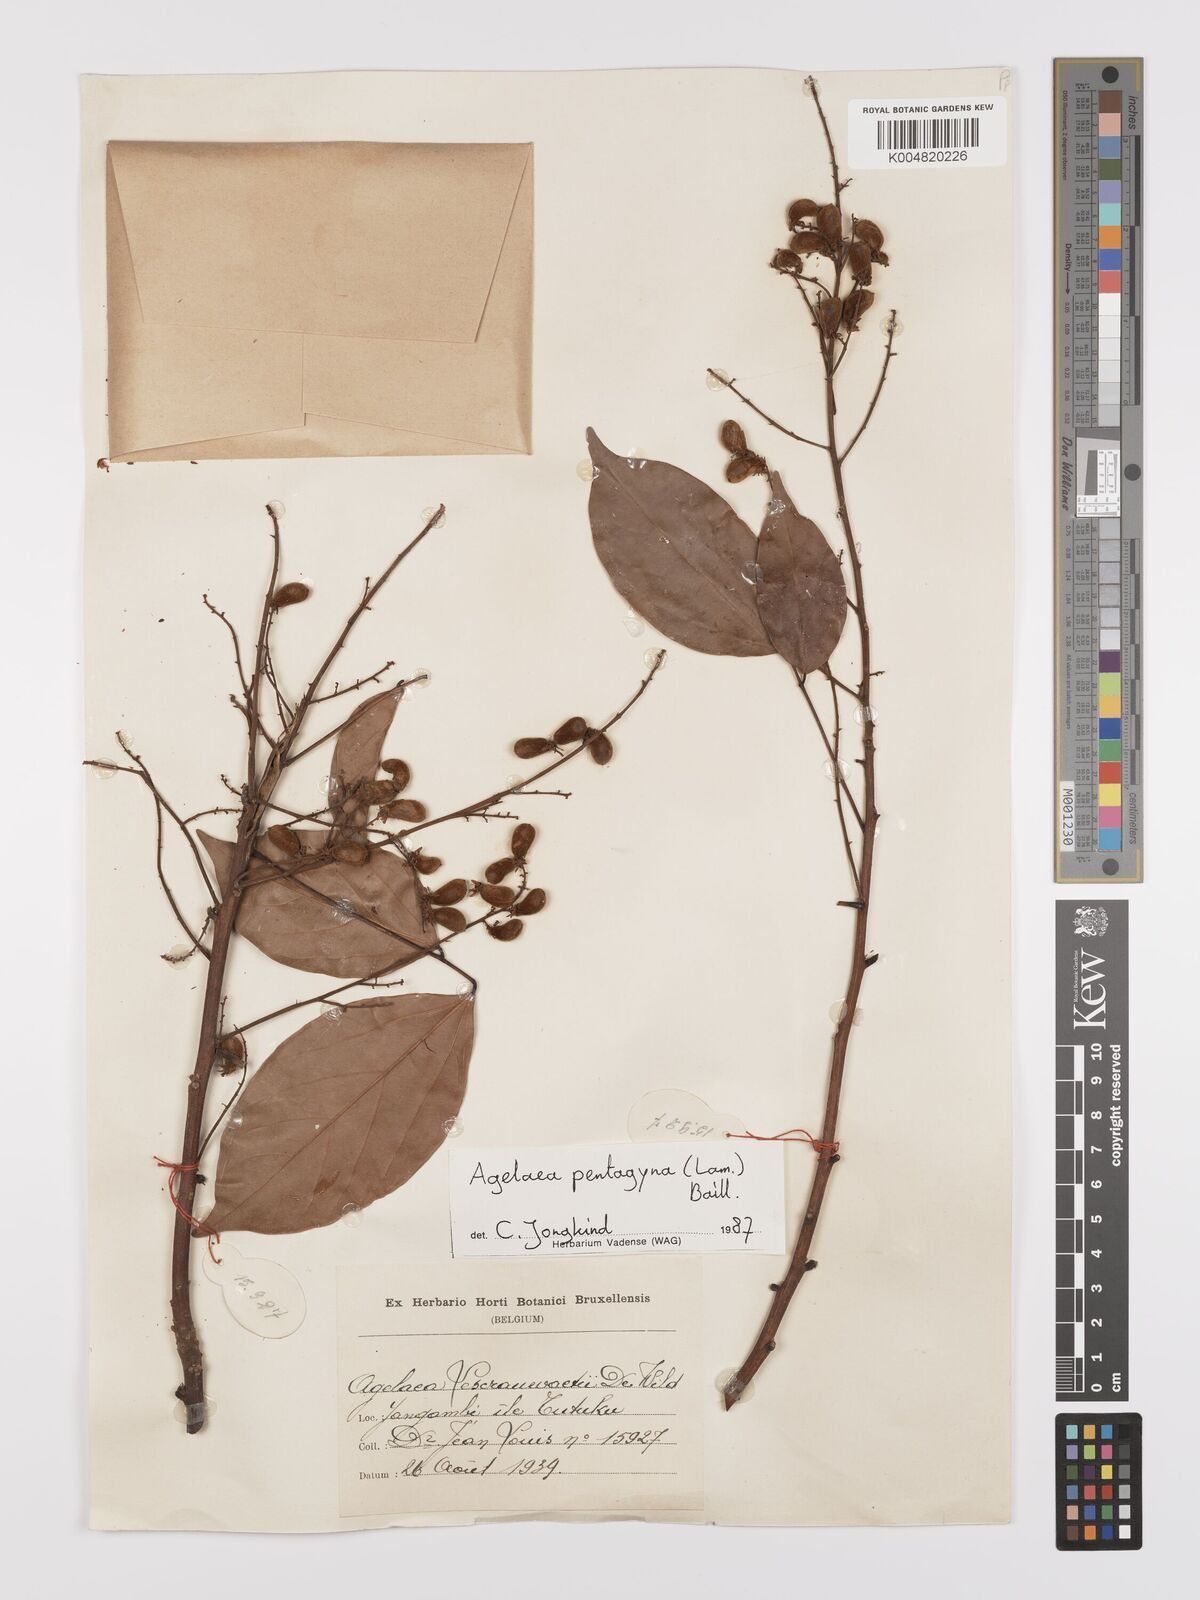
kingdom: Plantae
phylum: Tracheophyta
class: Magnoliopsida
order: Oxalidales
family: Connaraceae
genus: Agelaea
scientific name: Agelaea pentagyna
